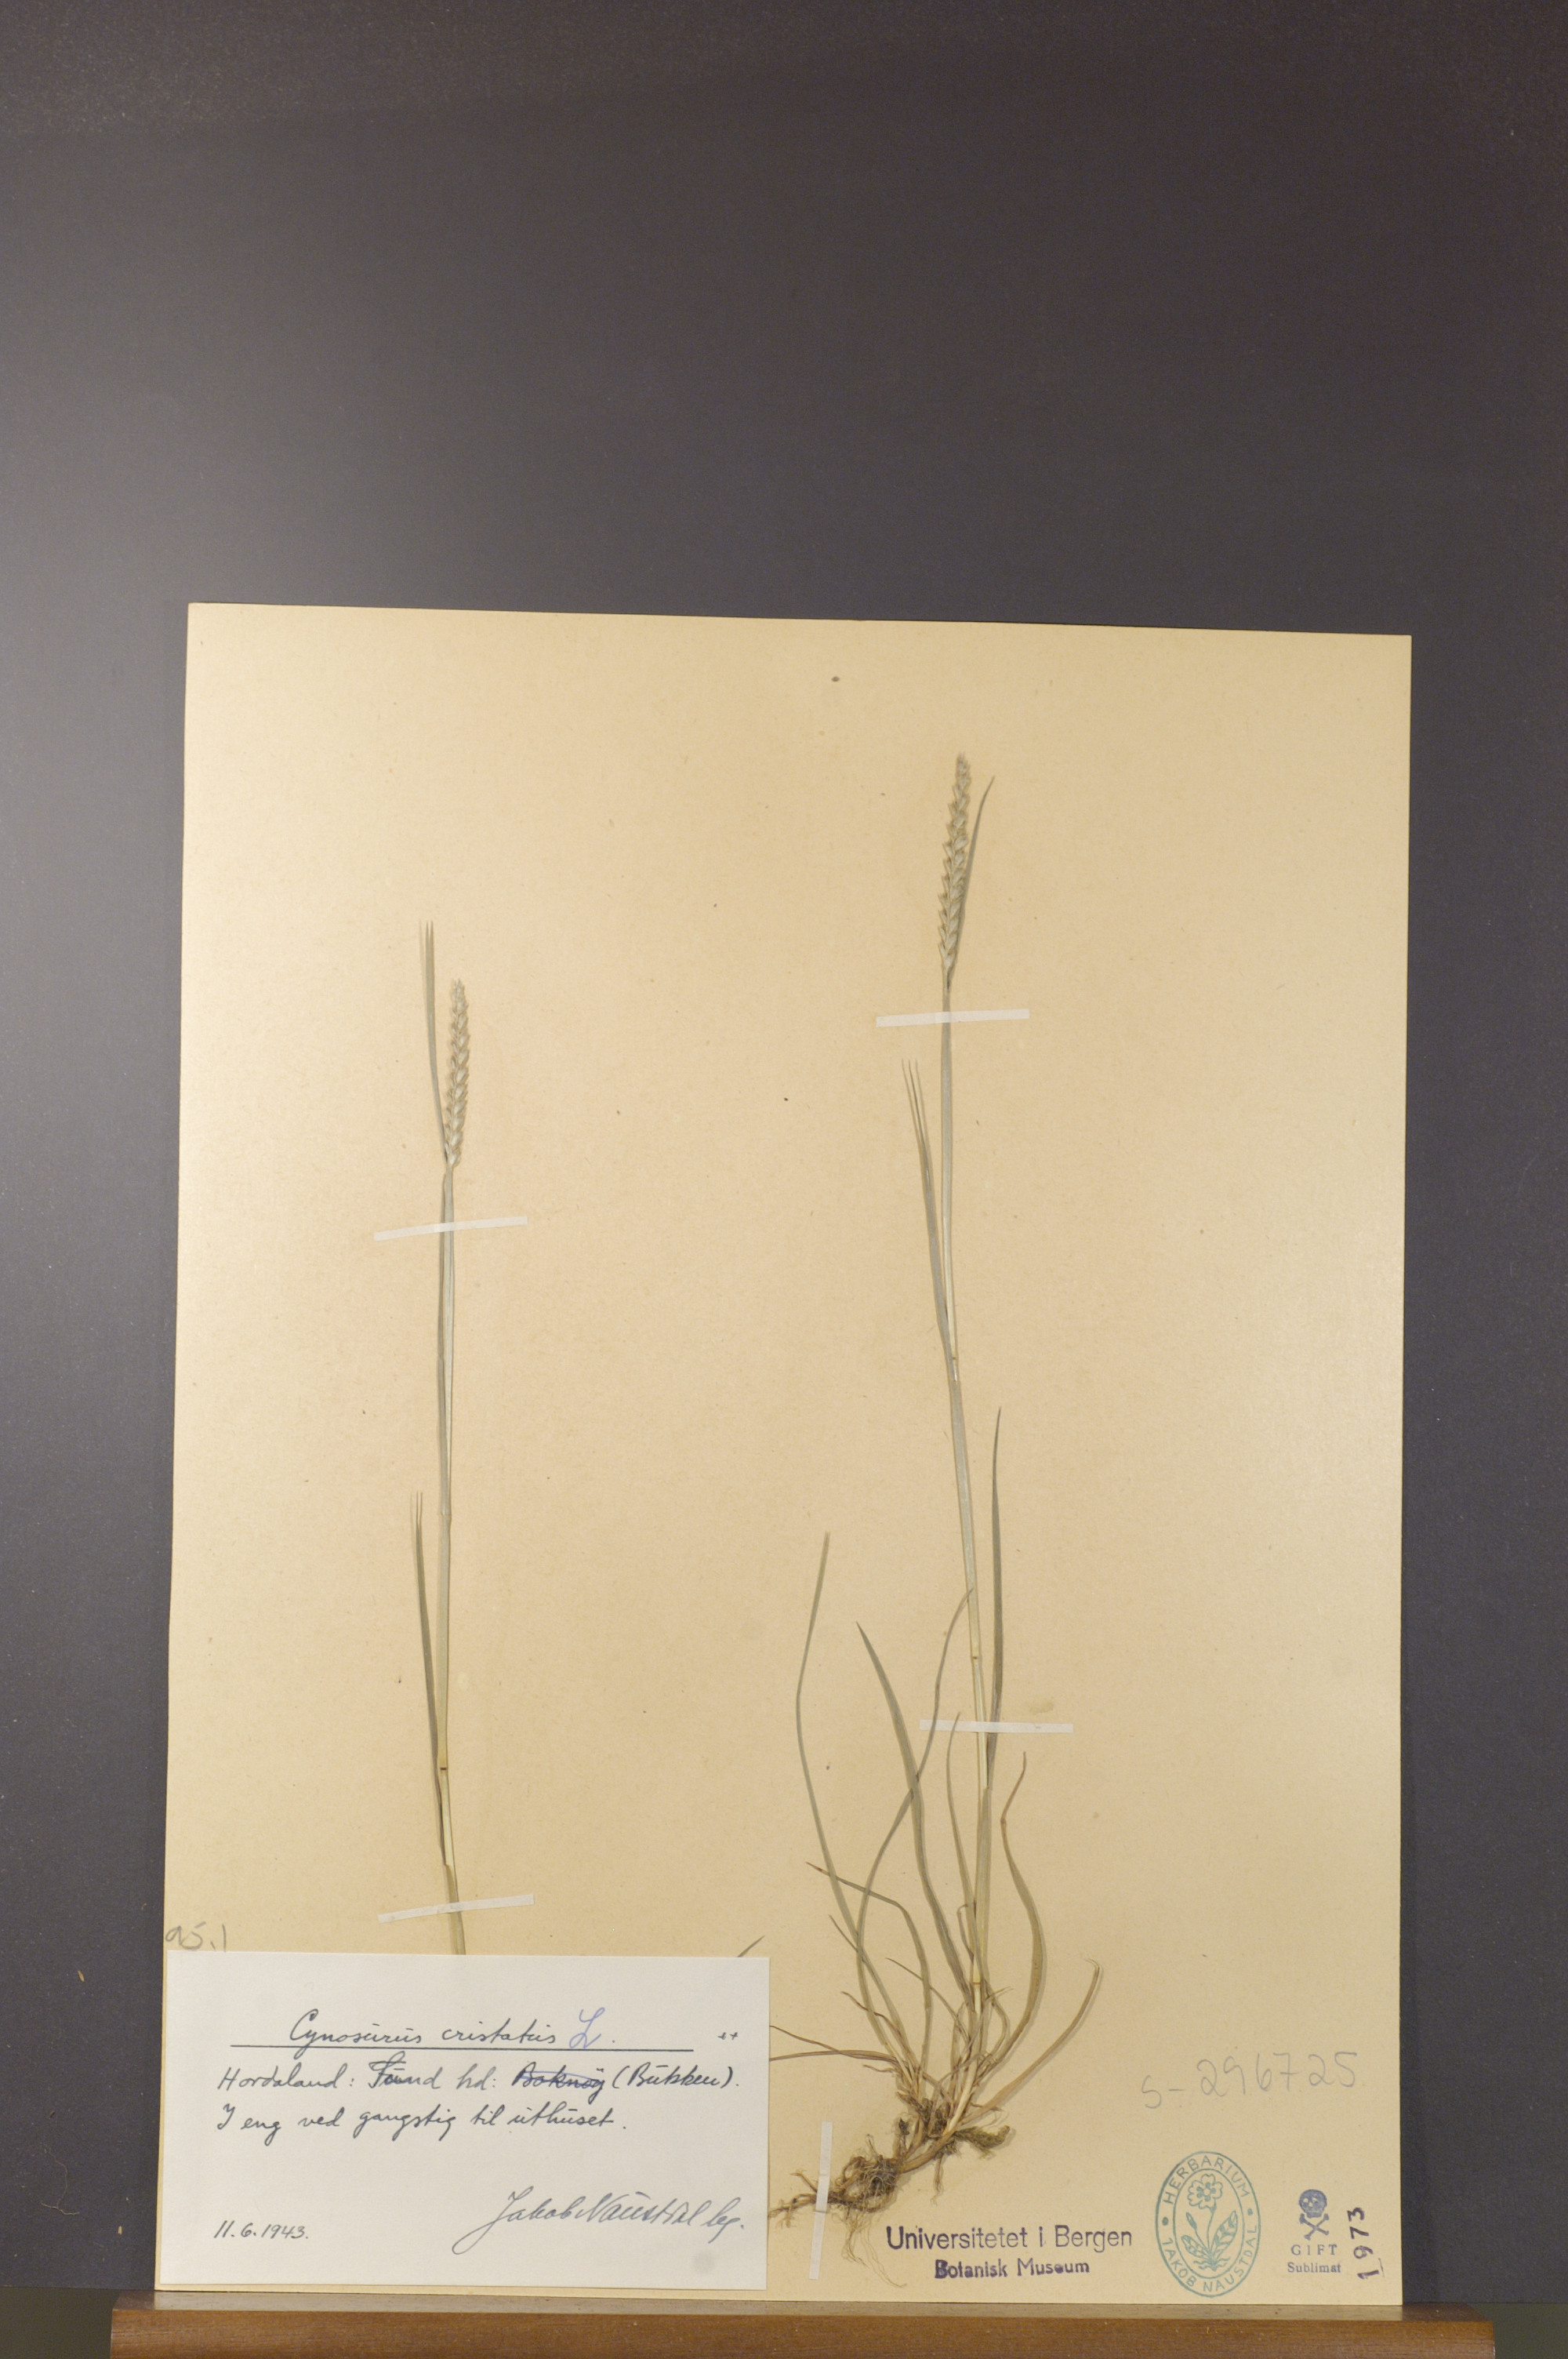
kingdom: Plantae
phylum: Tracheophyta
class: Liliopsida
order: Poales
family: Poaceae
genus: Cynosurus
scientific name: Cynosurus cristatus
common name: Crested dog's-tail
